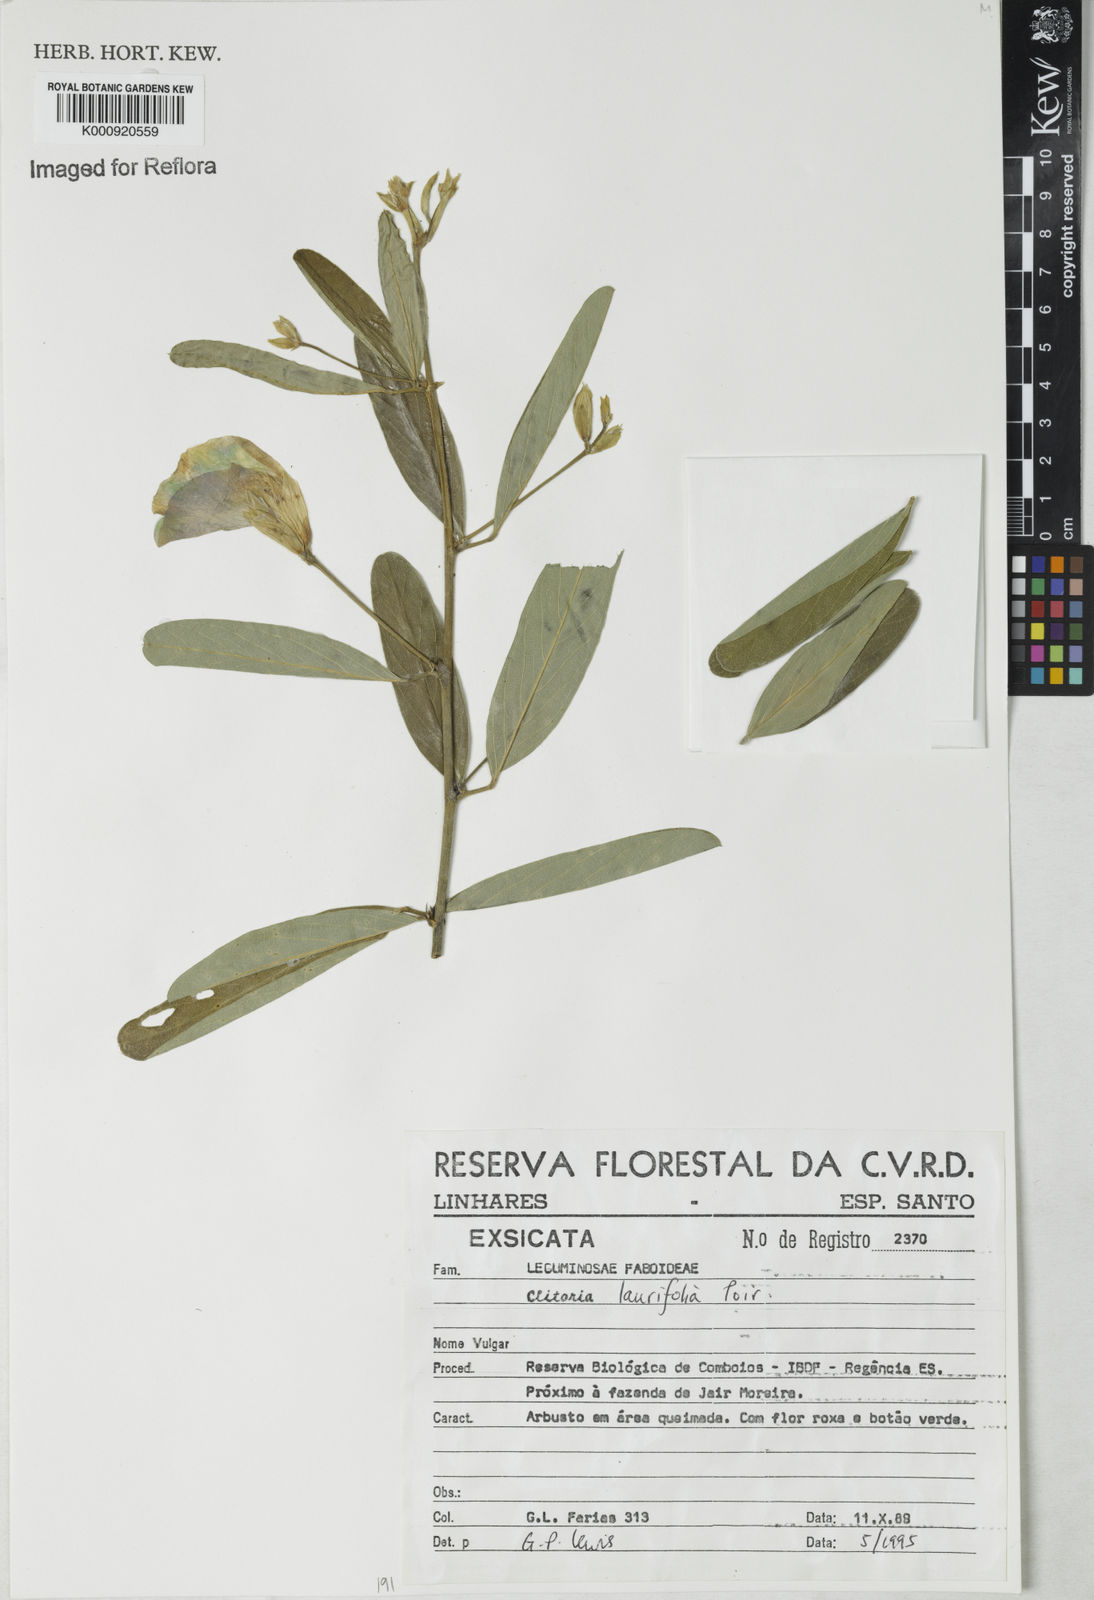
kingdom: Plantae
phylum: Tracheophyta
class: Magnoliopsida
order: Fabales
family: Fabaceae
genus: Clitoria
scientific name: Clitoria
